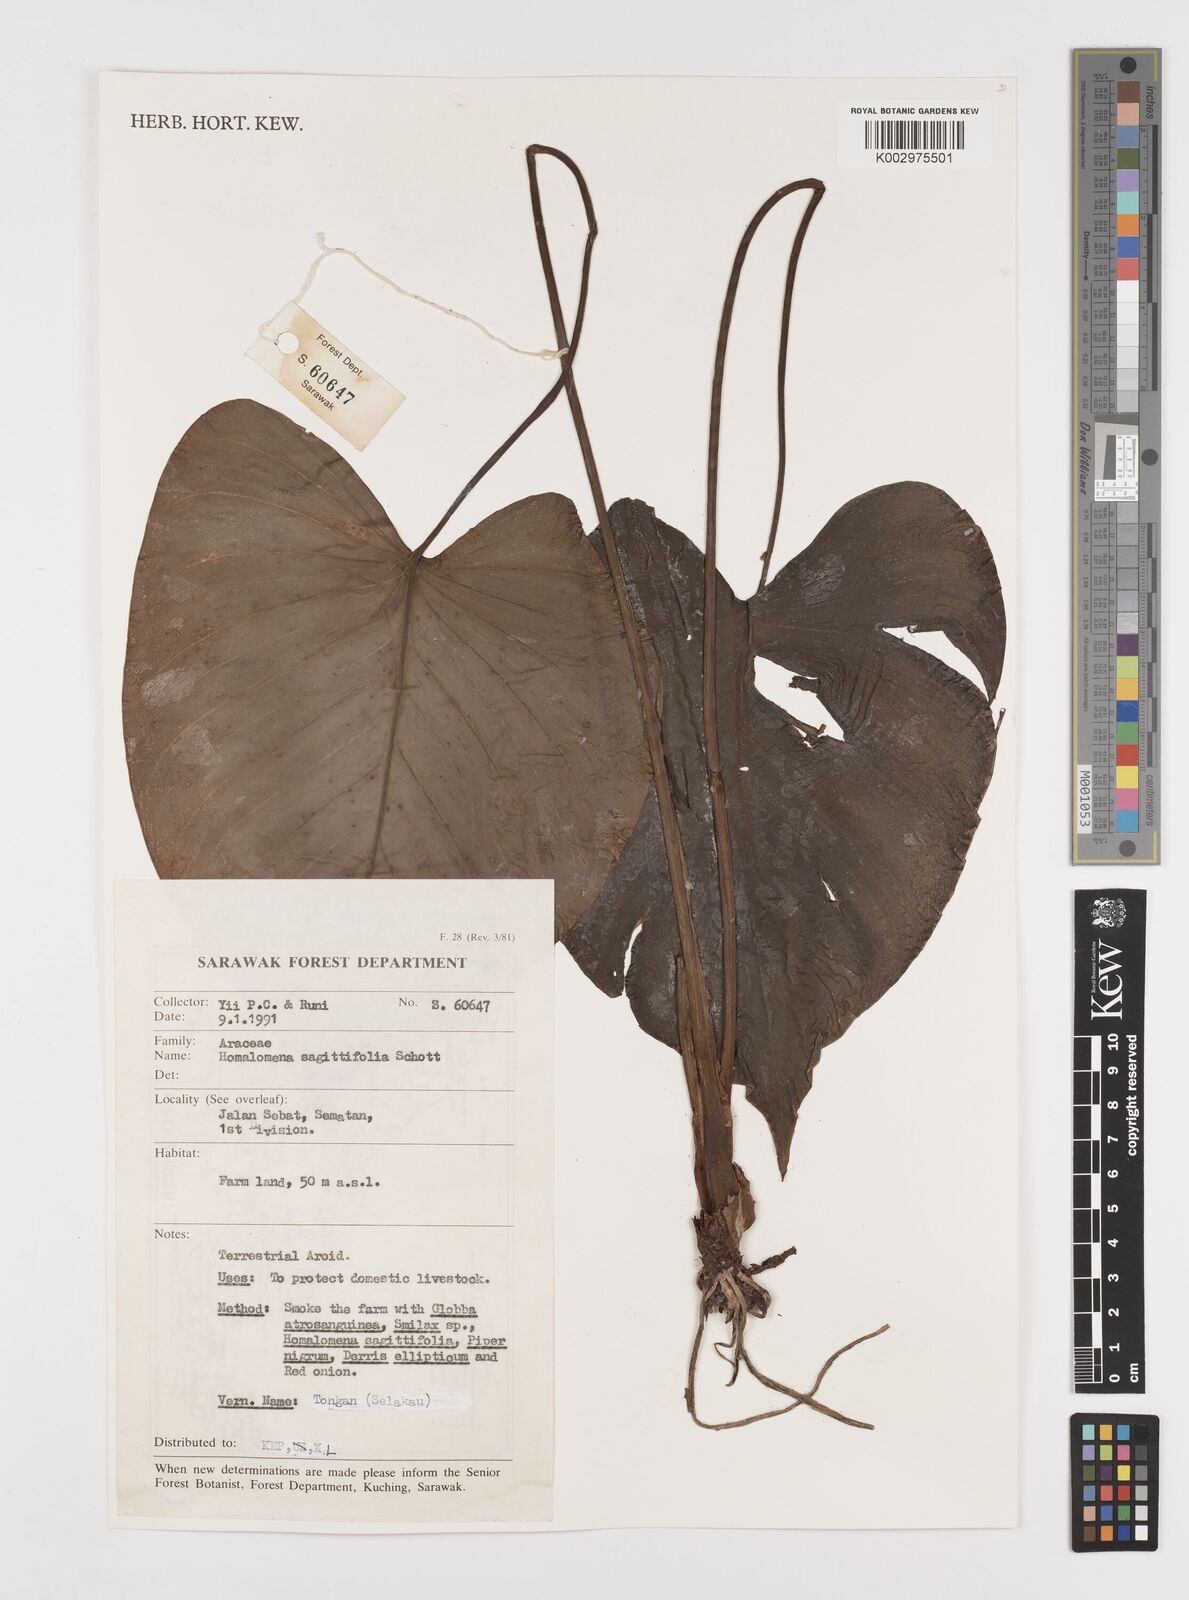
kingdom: Plantae
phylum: Tracheophyta
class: Liliopsida
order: Alismatales
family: Araceae
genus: Homalomena
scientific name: Homalomena rostrata
